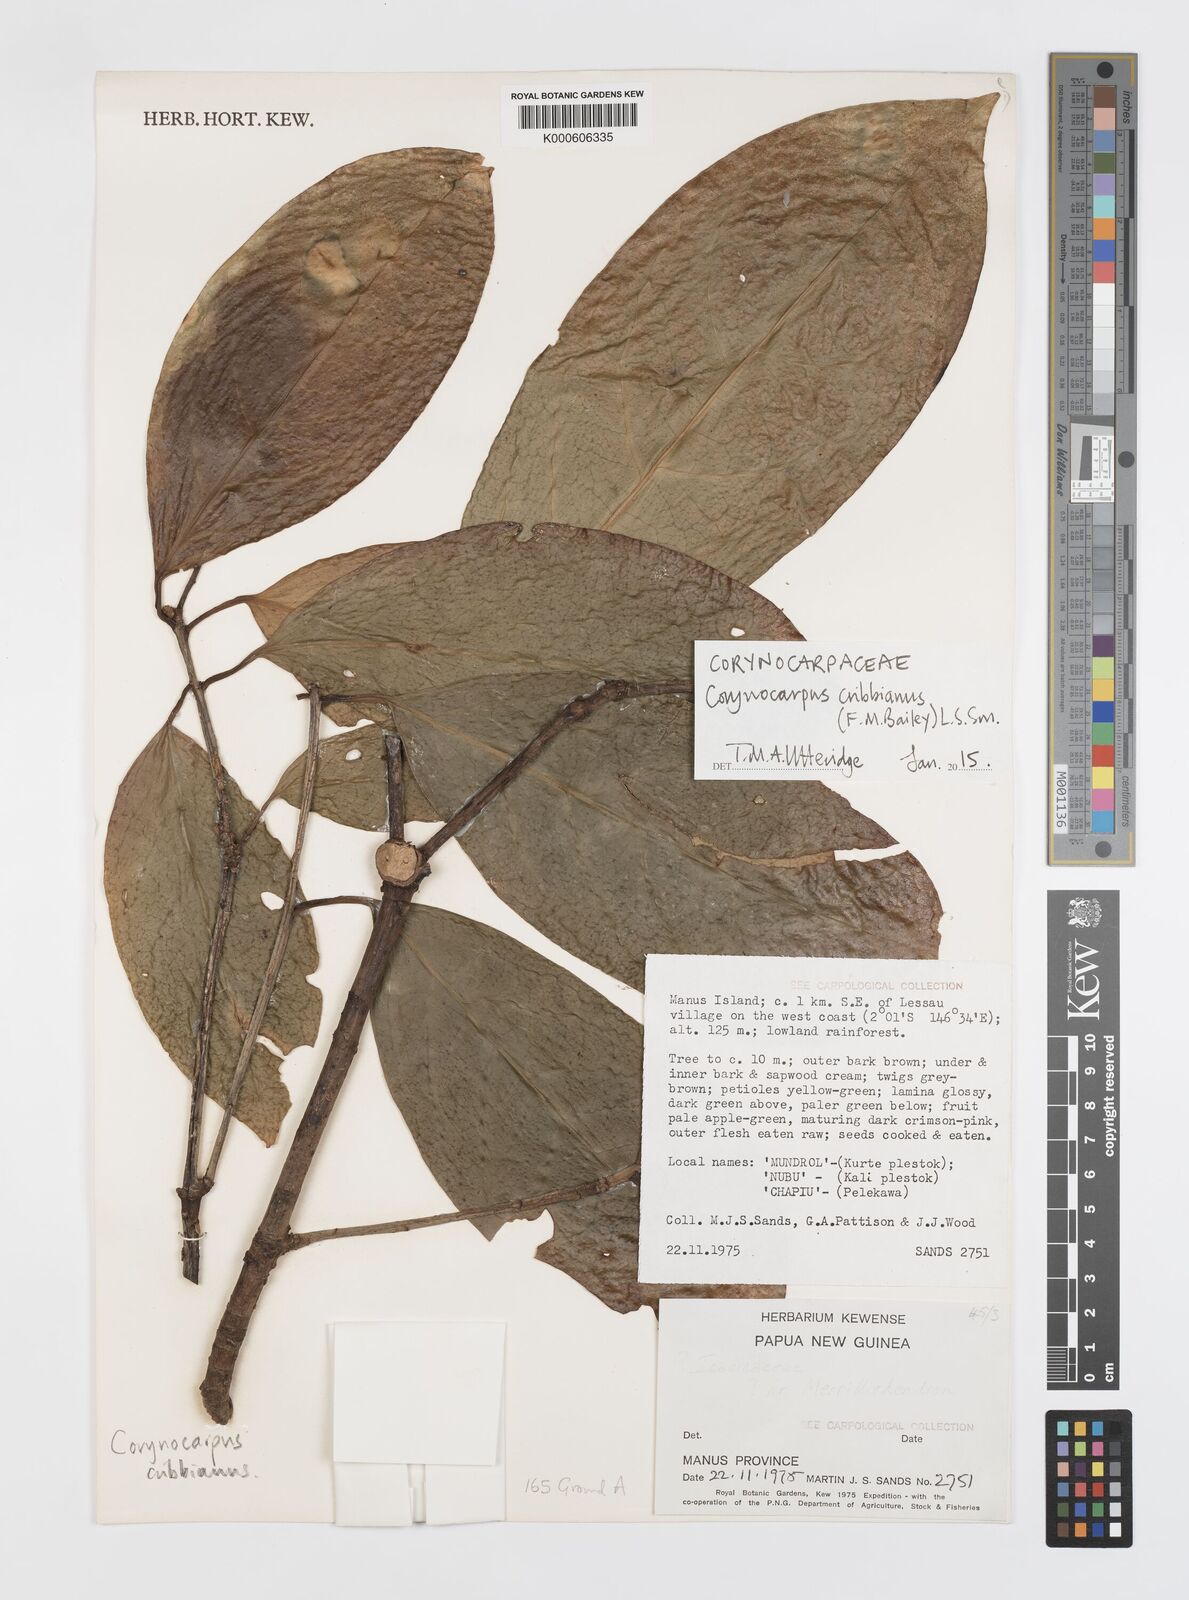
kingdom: Plantae
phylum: Tracheophyta
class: Magnoliopsida
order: Cucurbitales
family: Corynocarpaceae
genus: Corynocarpus
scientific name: Corynocarpus cribbianus
